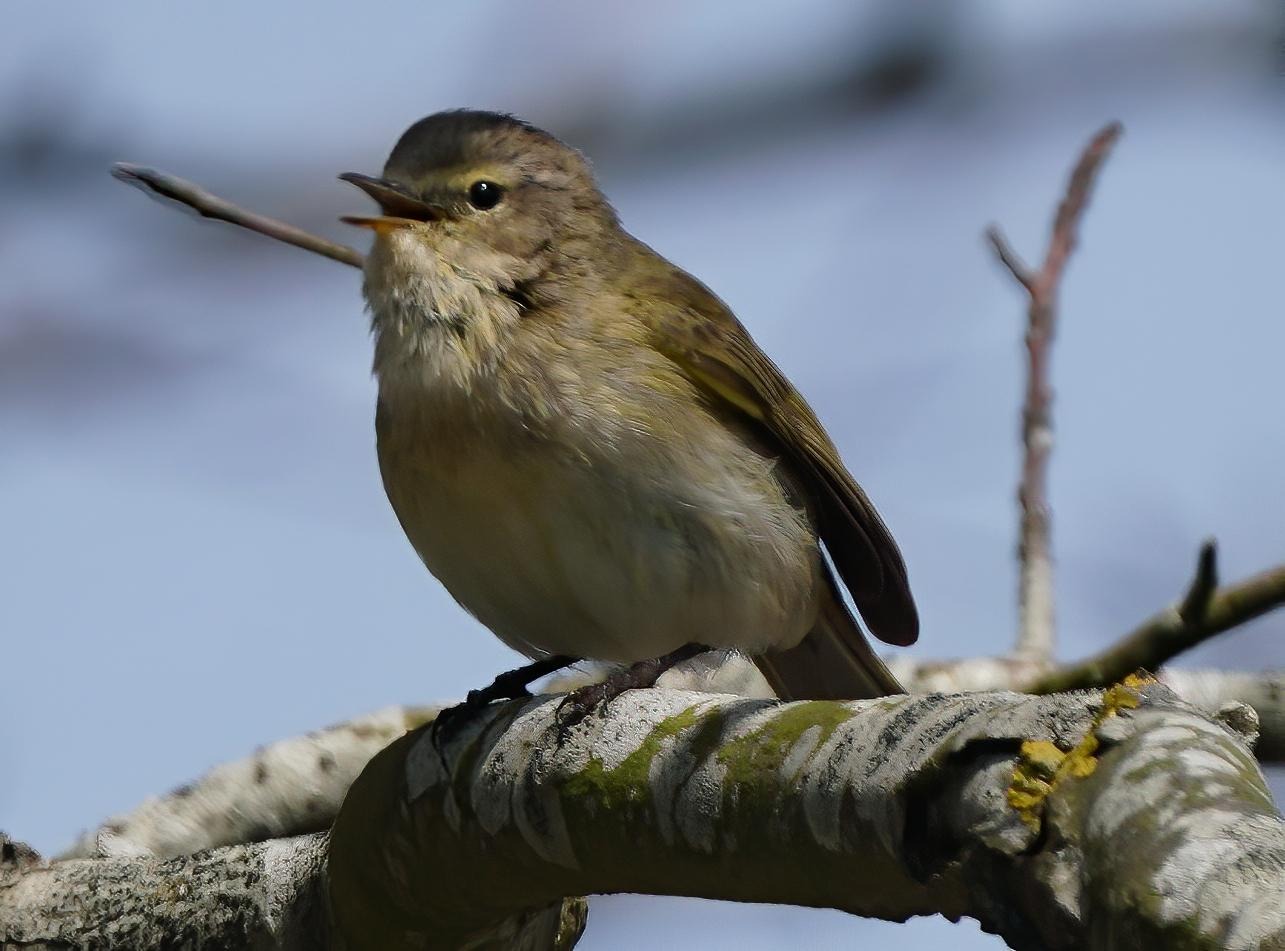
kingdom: Animalia
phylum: Chordata
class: Aves
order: Passeriformes
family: Phylloscopidae
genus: Phylloscopus
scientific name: Phylloscopus collybita
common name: Gransanger
